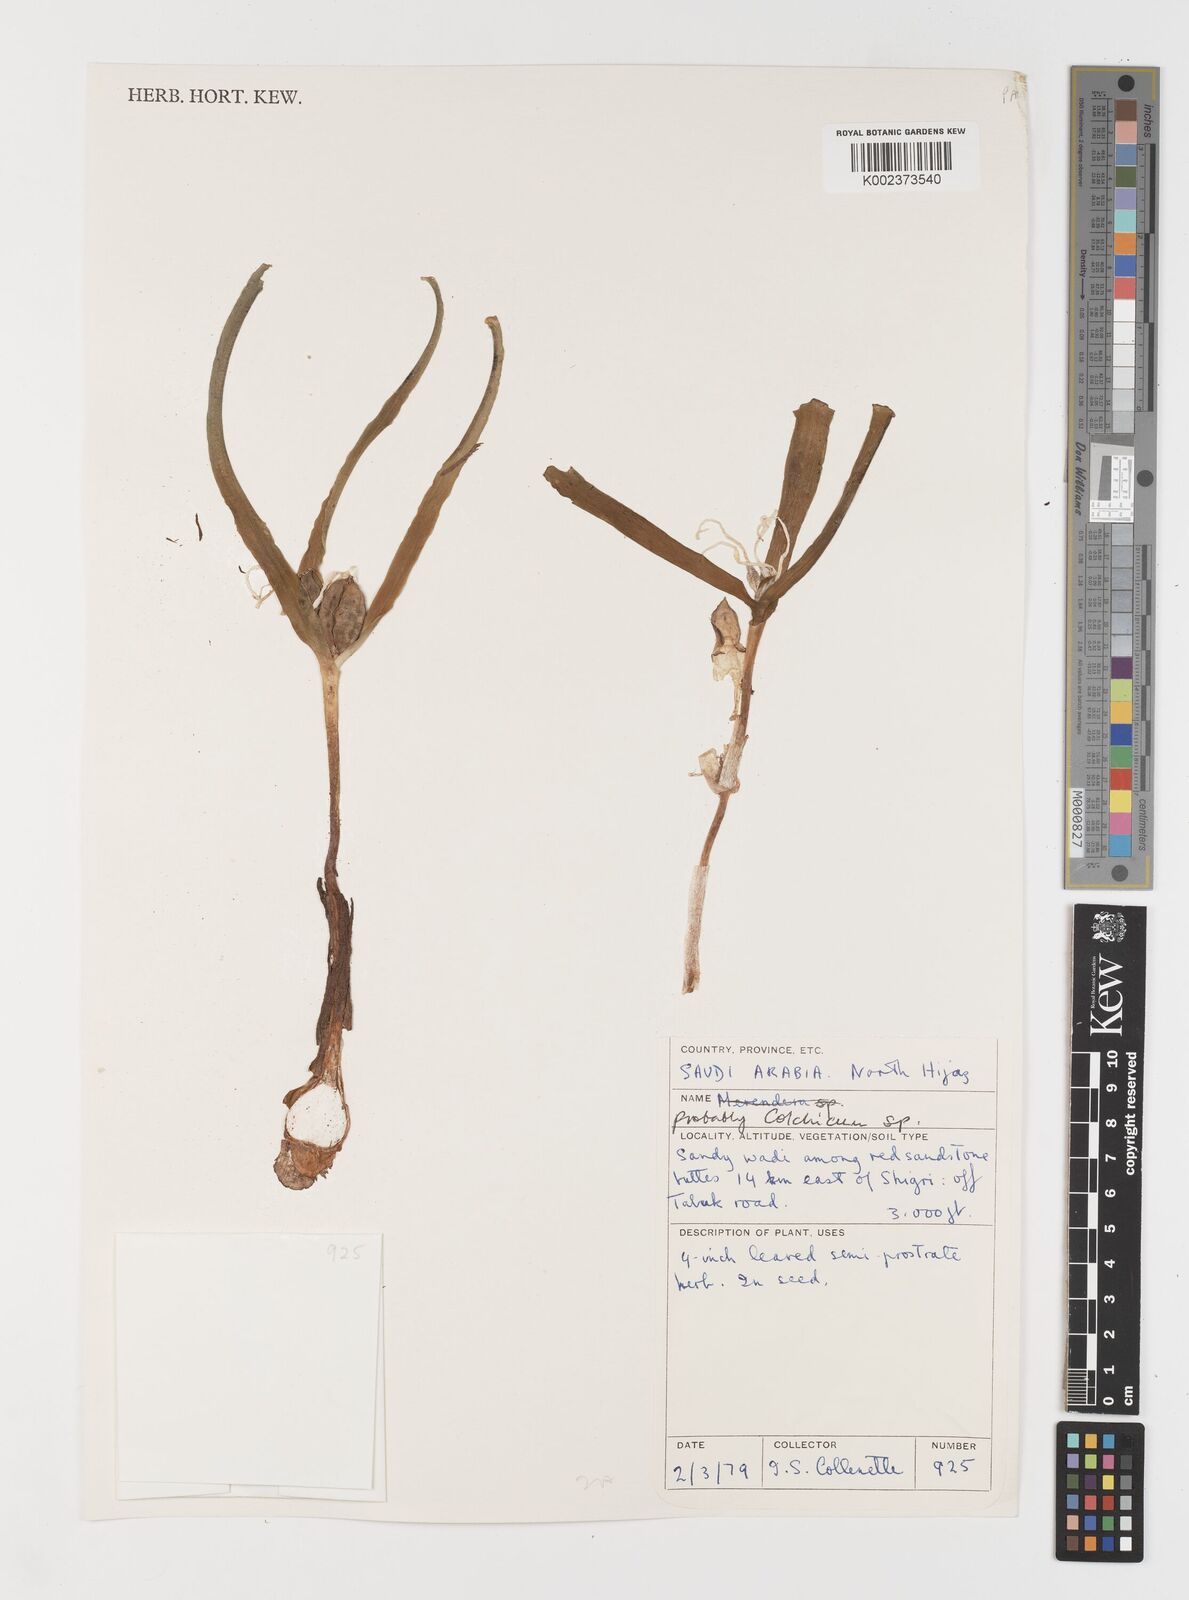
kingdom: Plantae
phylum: Tracheophyta
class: Liliopsida
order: Liliales
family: Colchicaceae
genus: Colchicum
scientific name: Colchicum ritchii
